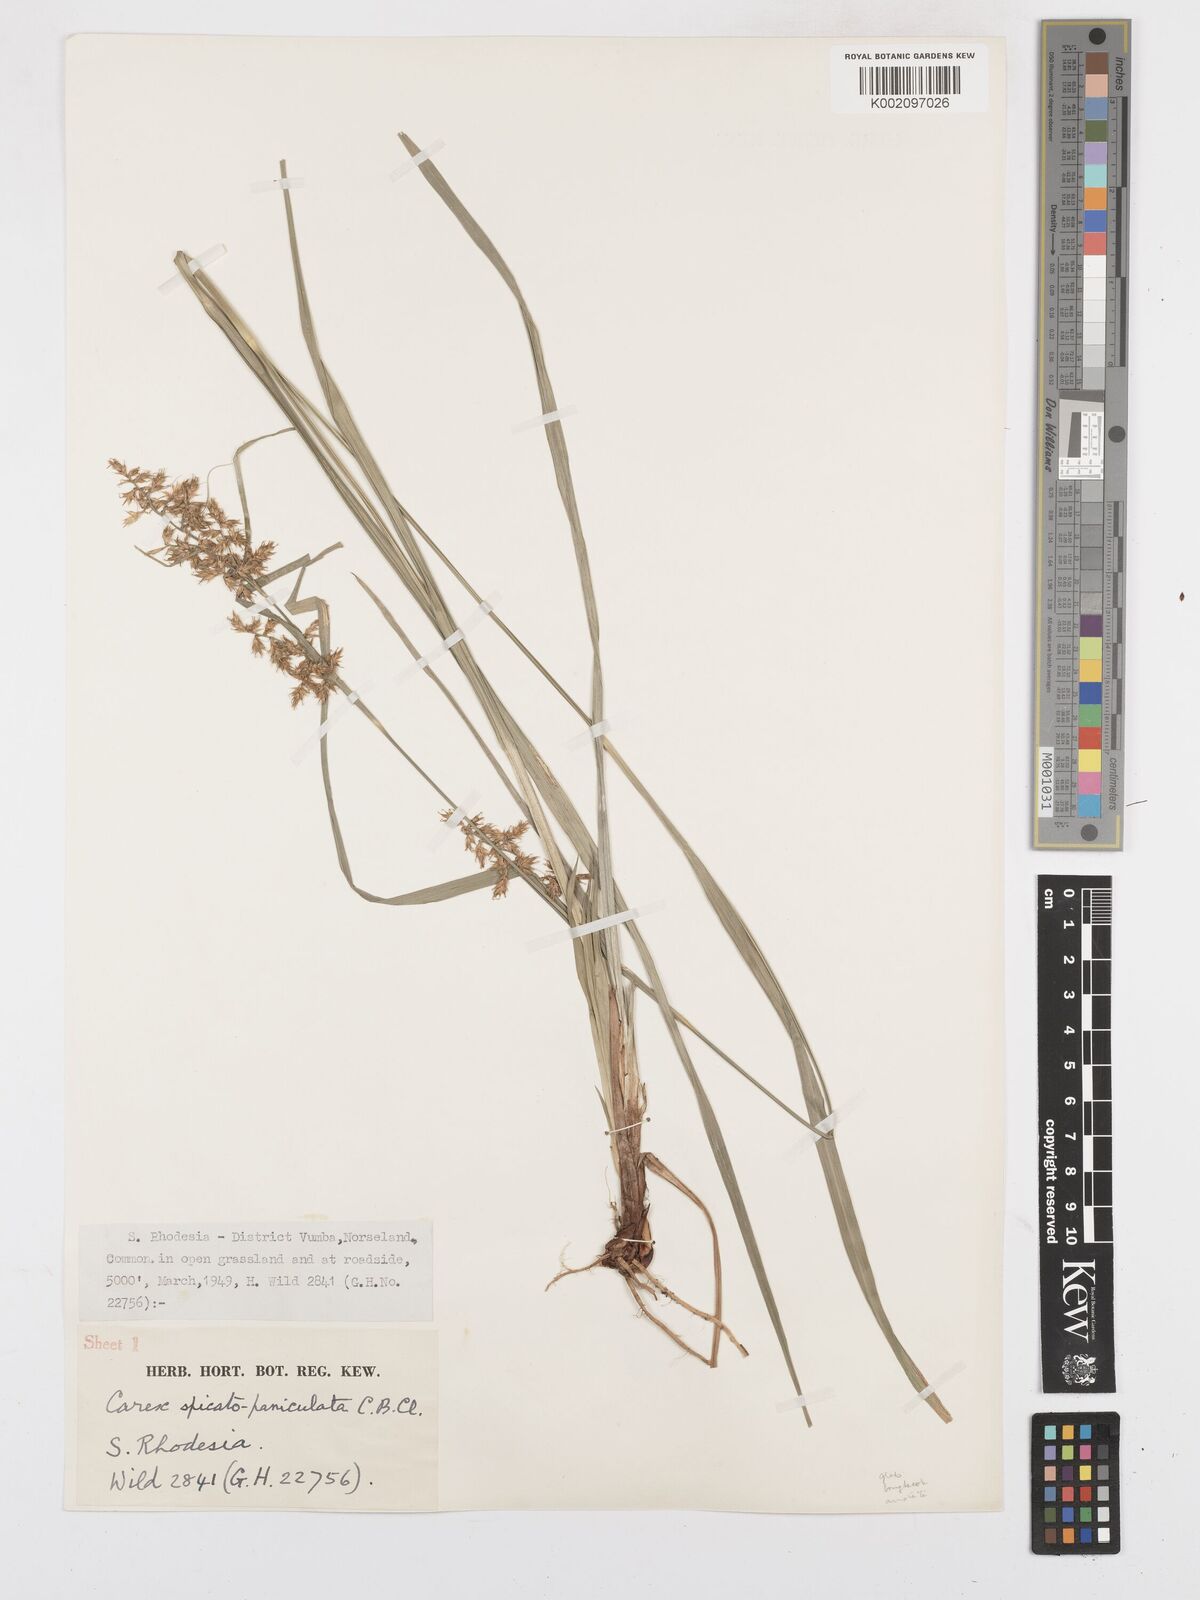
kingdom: Plantae
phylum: Tracheophyta
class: Liliopsida
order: Poales
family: Cyperaceae
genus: Carex
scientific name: Carex spicatopaniculata
